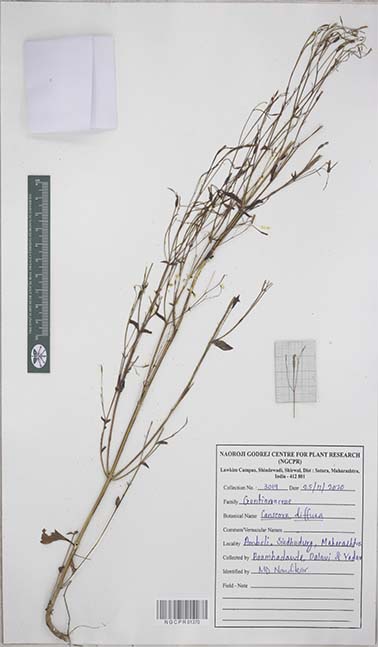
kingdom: Plantae
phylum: Tracheophyta
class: Magnoliopsida
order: Gentianales
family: Gentianaceae
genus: Canscora
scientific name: Canscora diffusa
